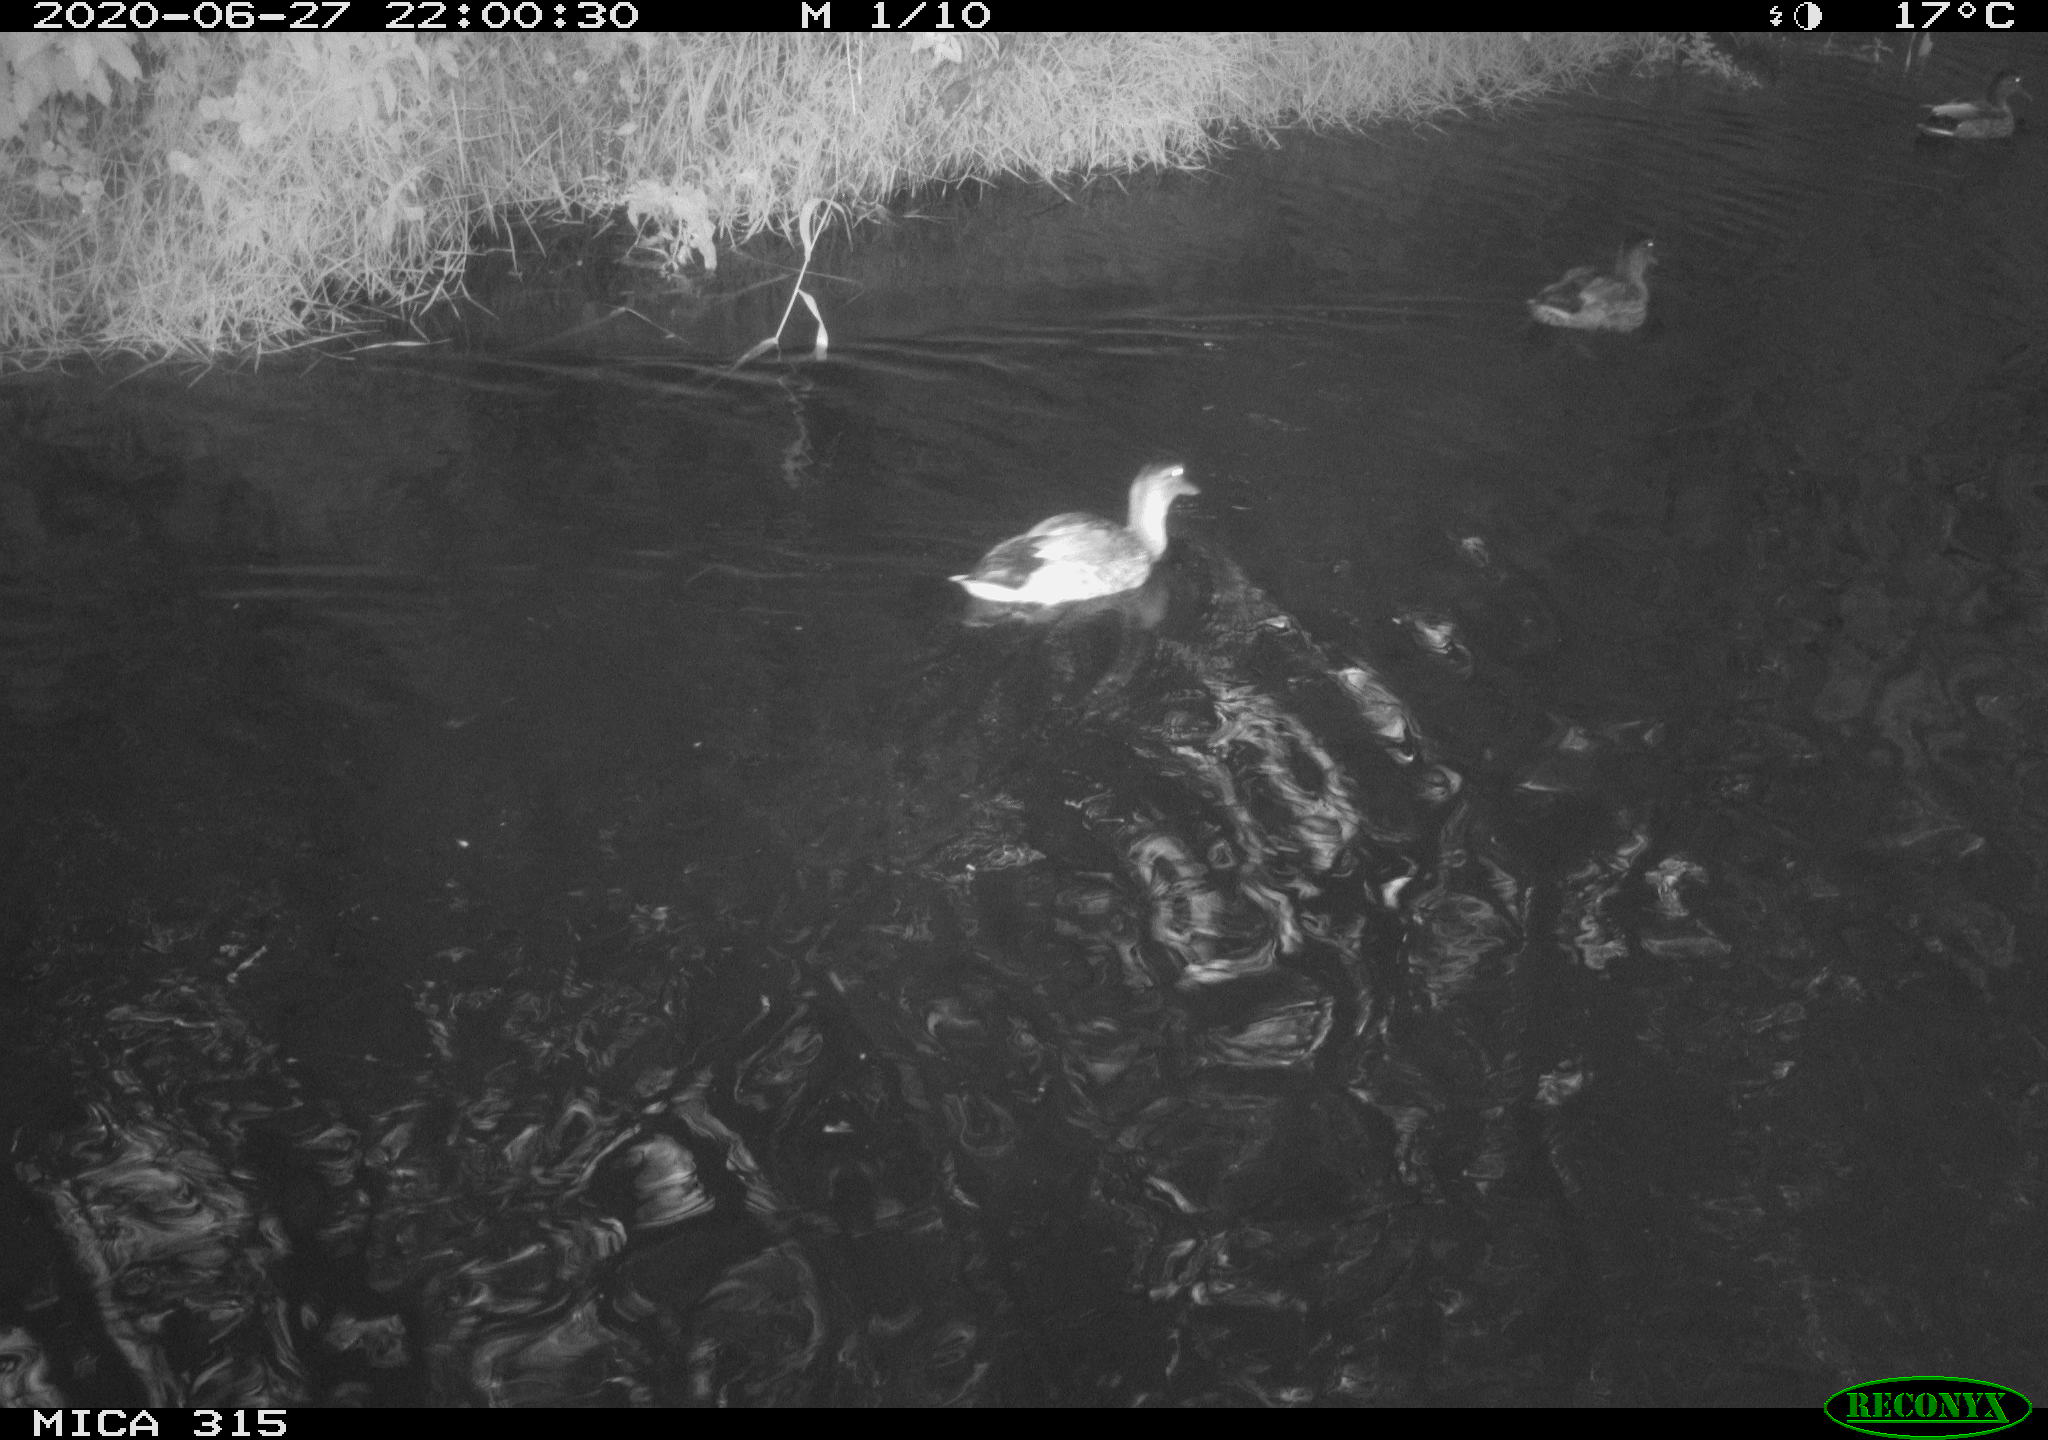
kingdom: Animalia
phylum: Chordata
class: Aves
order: Anseriformes
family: Anatidae
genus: Anas
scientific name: Anas platyrhynchos
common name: Mallard
